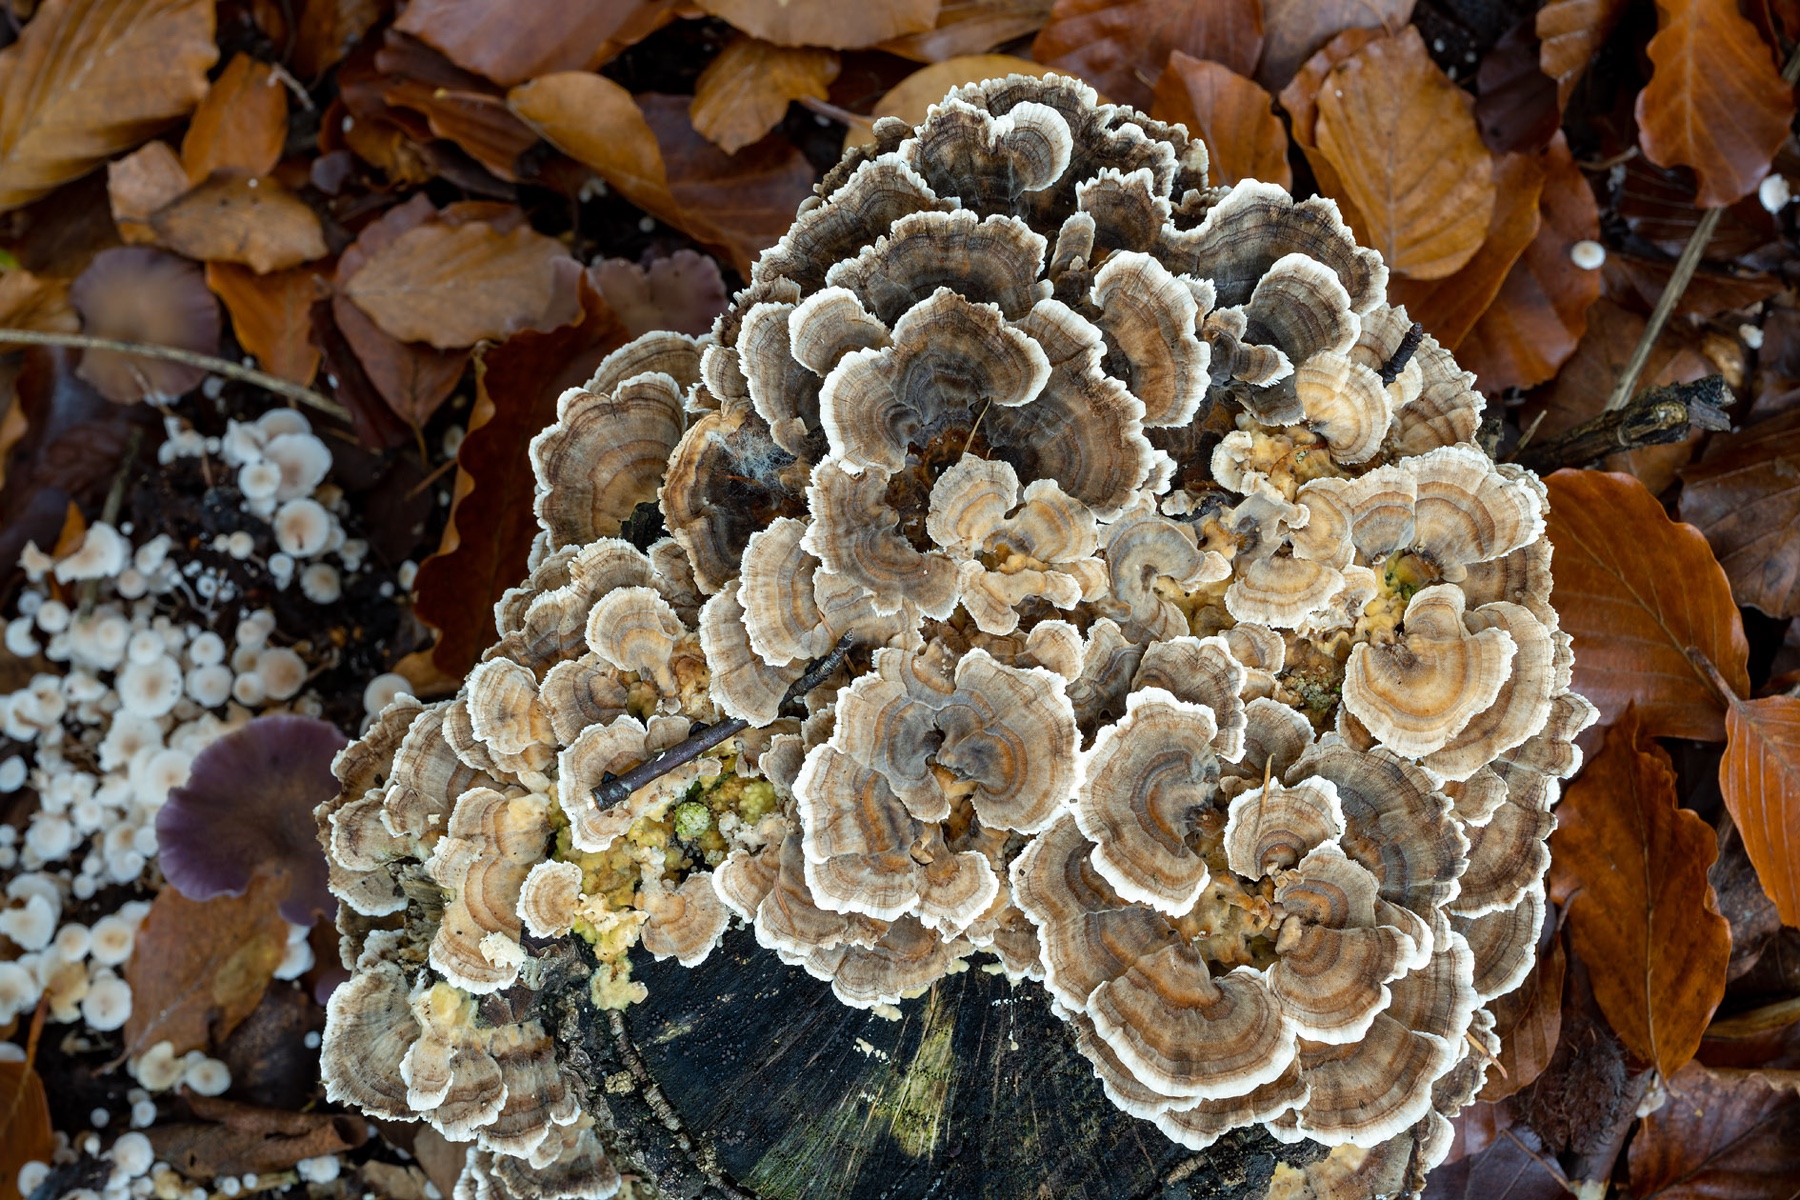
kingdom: Fungi
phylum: Basidiomycota
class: Agaricomycetes
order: Polyporales
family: Polyporaceae
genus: Trametes
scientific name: Trametes versicolor
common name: broget læderporesvamp
